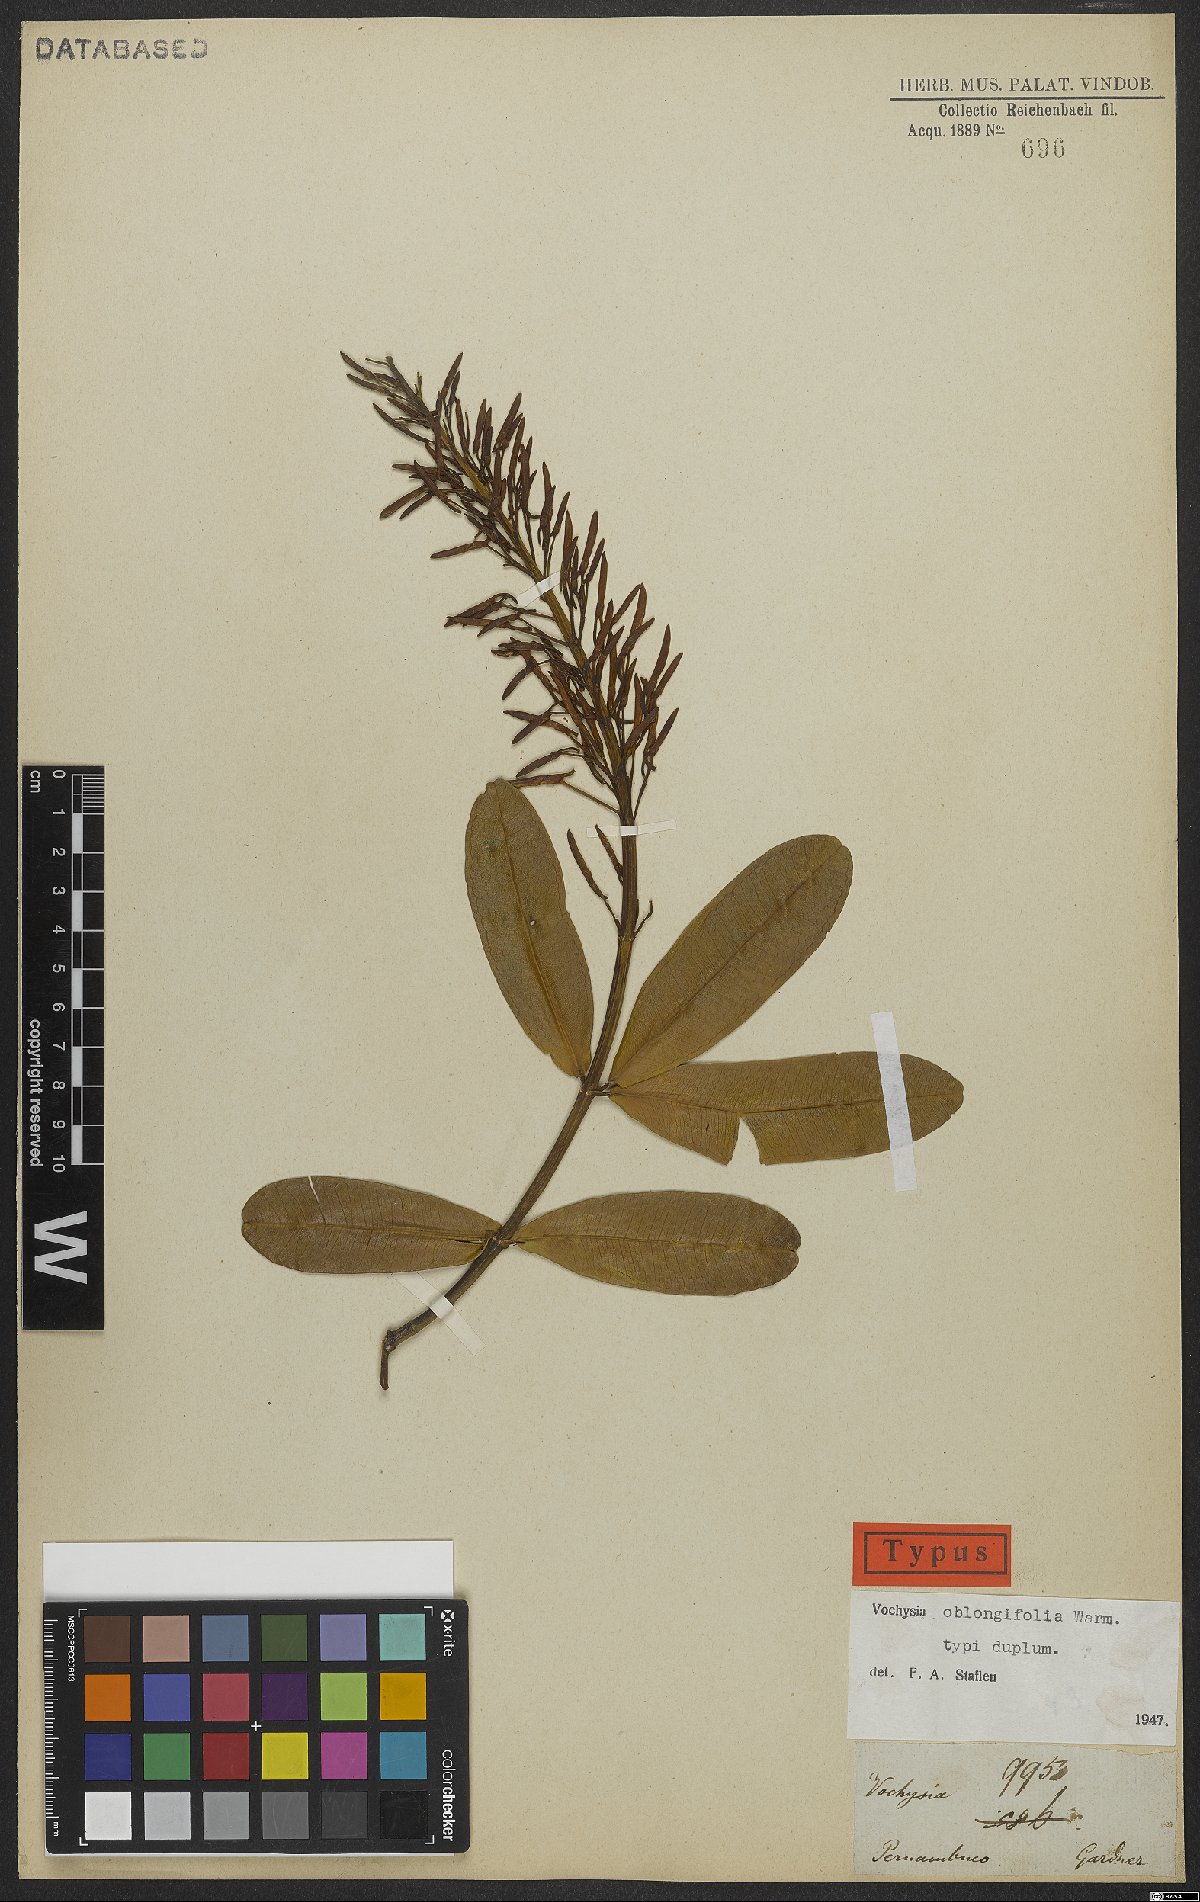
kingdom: Plantae
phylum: Tracheophyta
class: Magnoliopsida
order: Myrtales
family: Vochysiaceae
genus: Vochysia
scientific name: Vochysia oblongifolia
